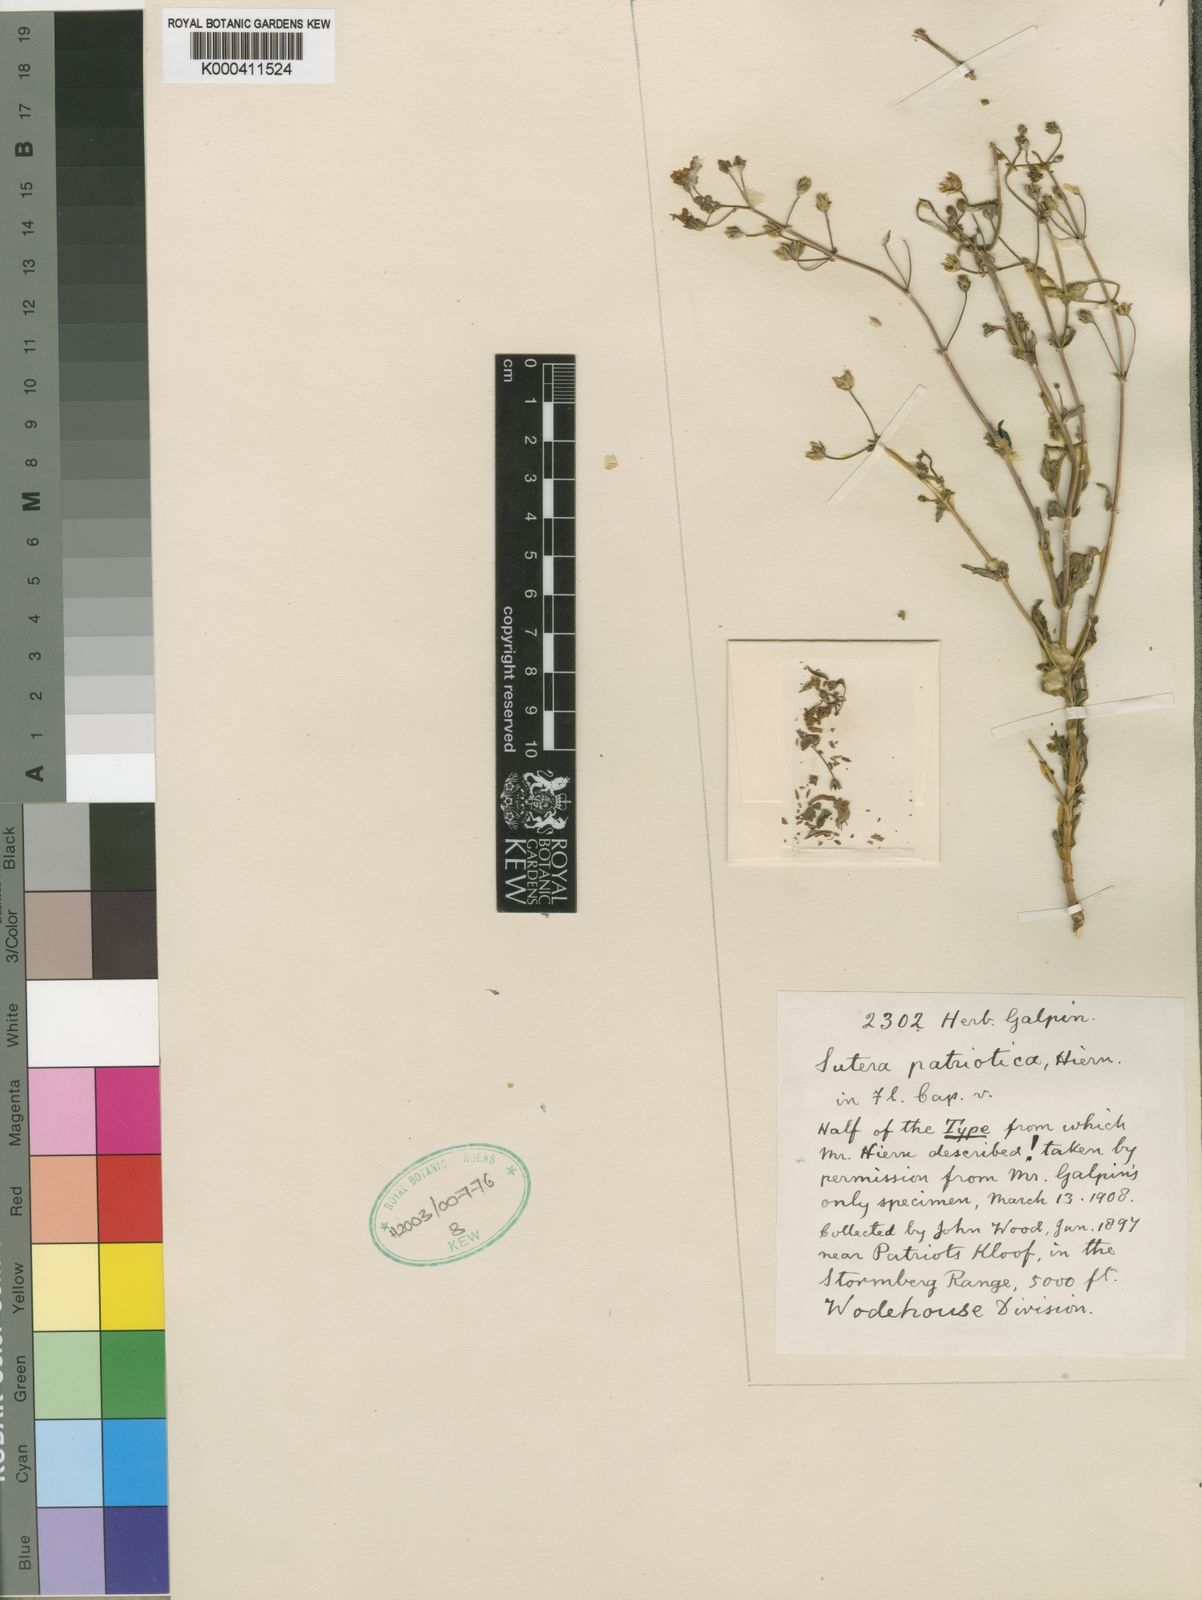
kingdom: Plantae
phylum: Tracheophyta
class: Magnoliopsida
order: Lamiales
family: Scrophulariaceae
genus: Chaenostoma
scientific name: Chaenostoma patrioticum
